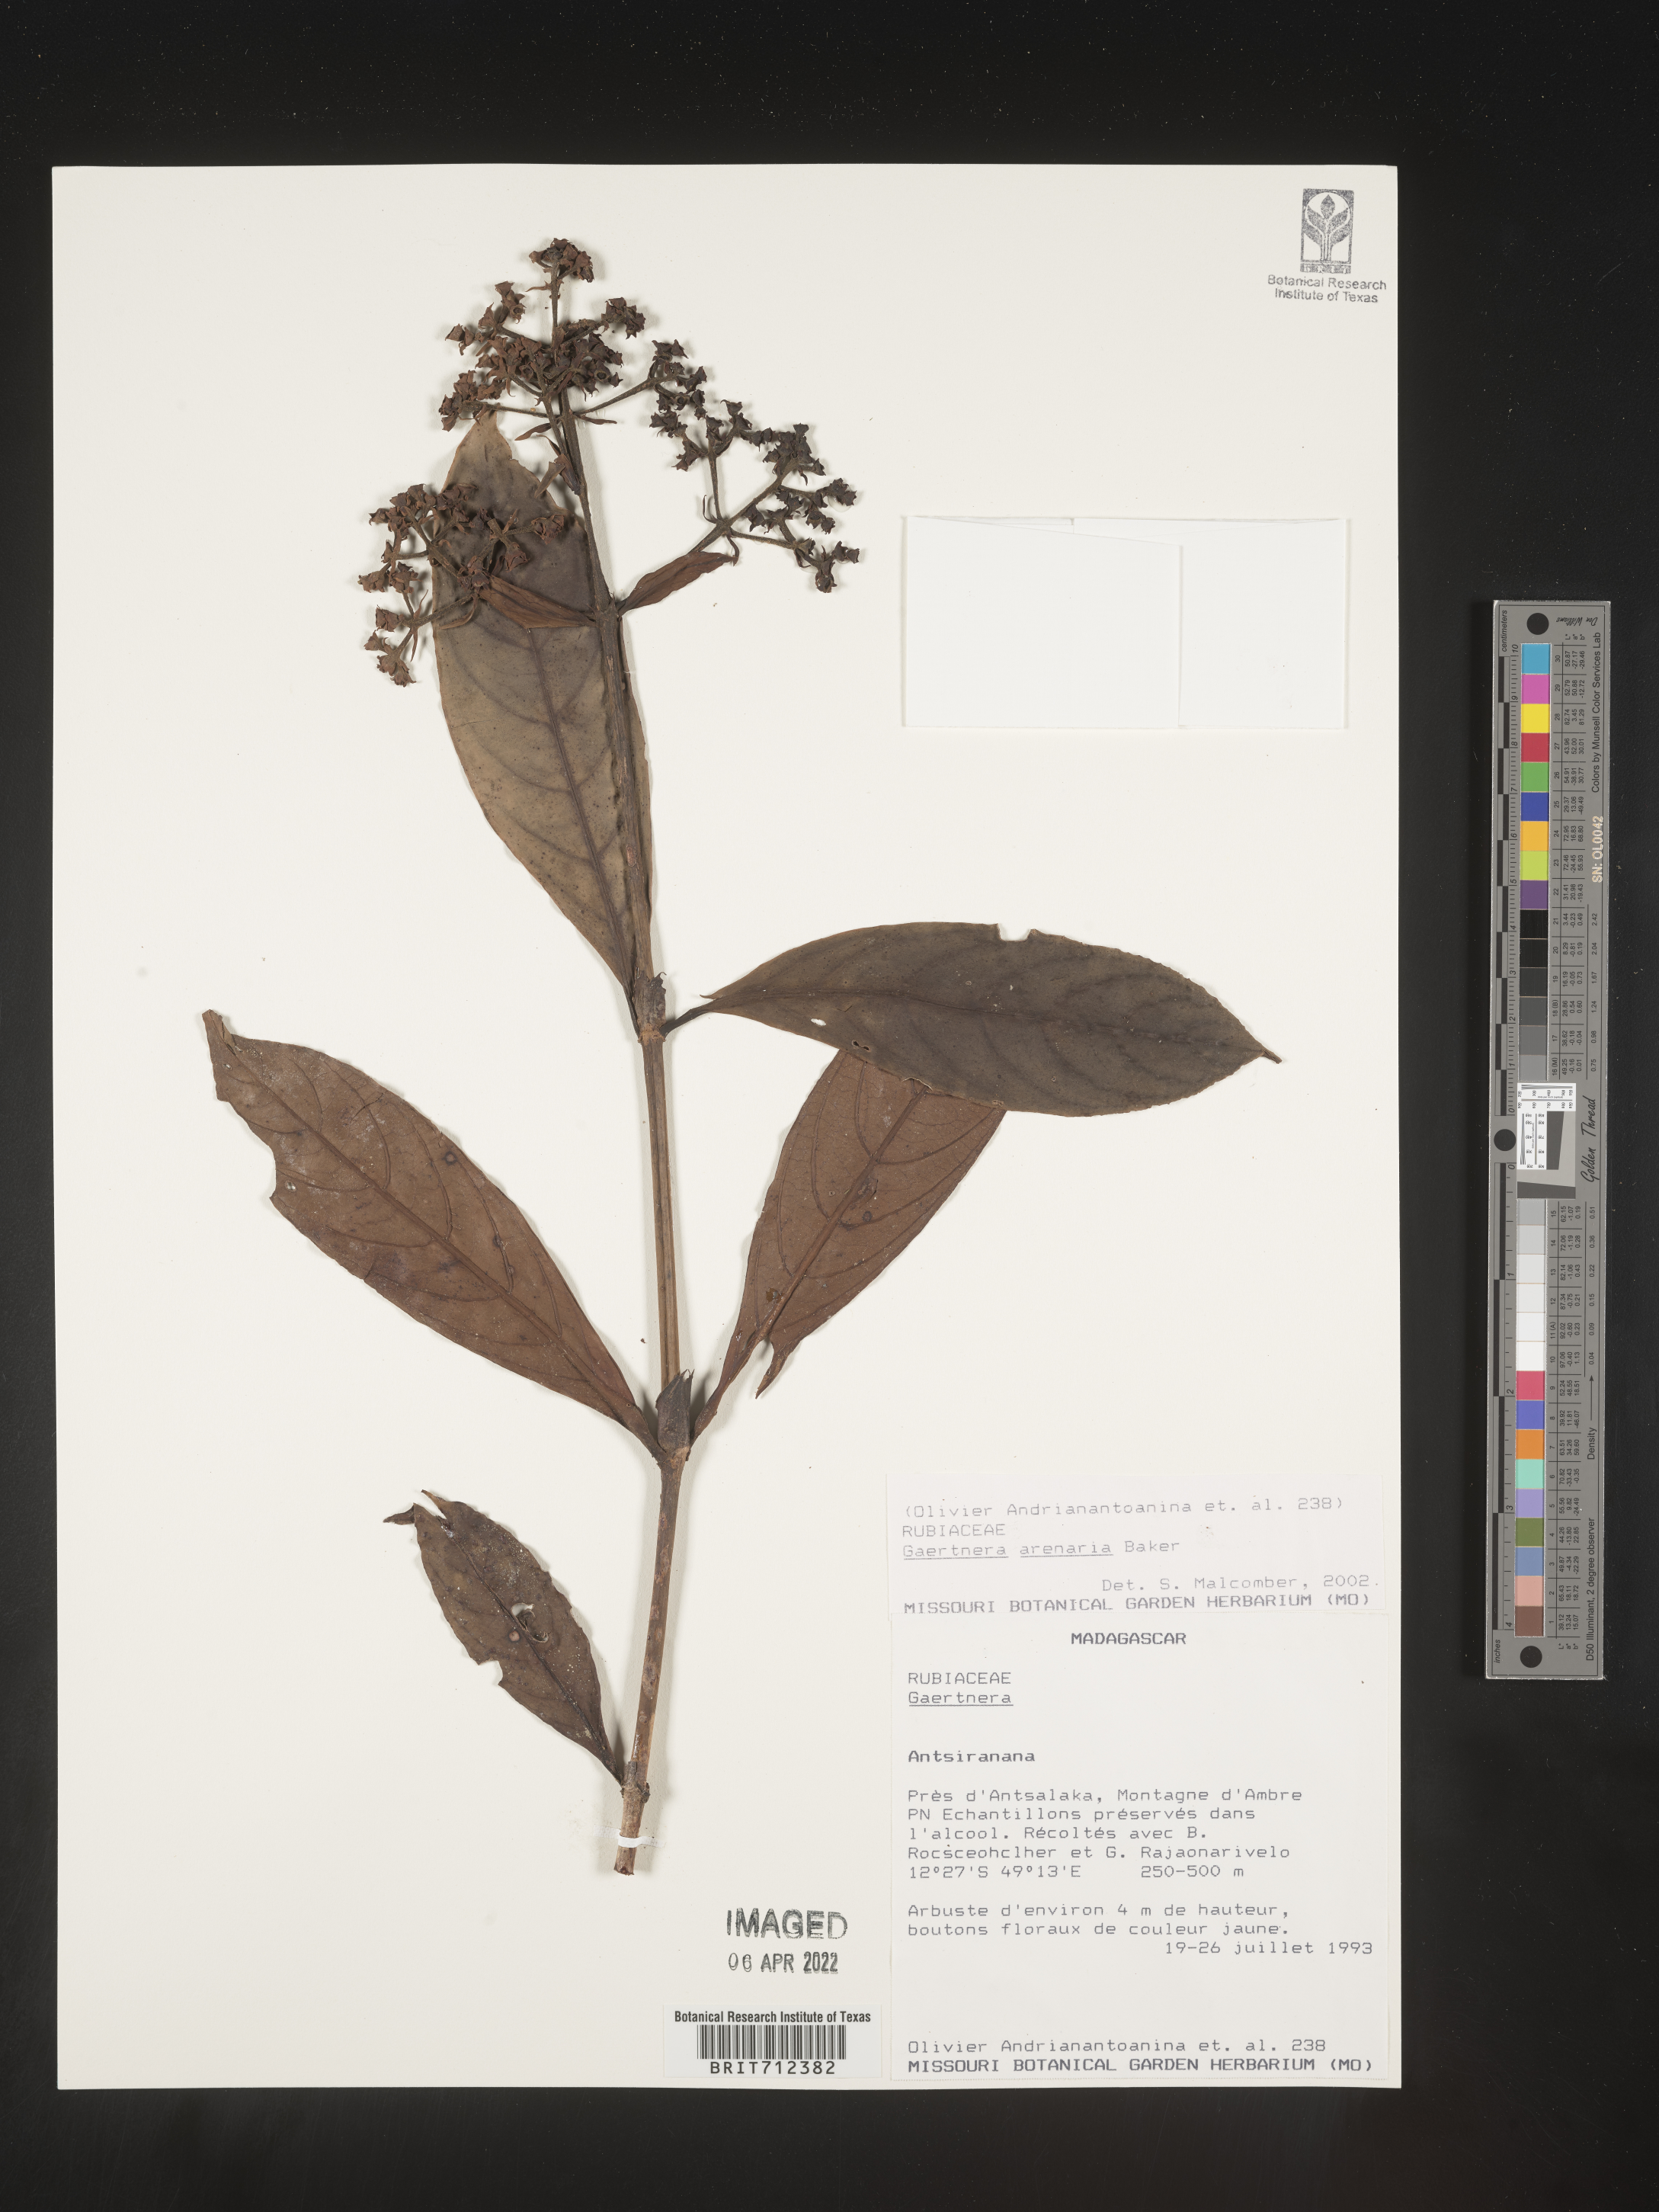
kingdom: Plantae
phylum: Tracheophyta
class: Magnoliopsida
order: Gentianales
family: Rubiaceae
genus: Gaertnera
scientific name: Gaertnera
